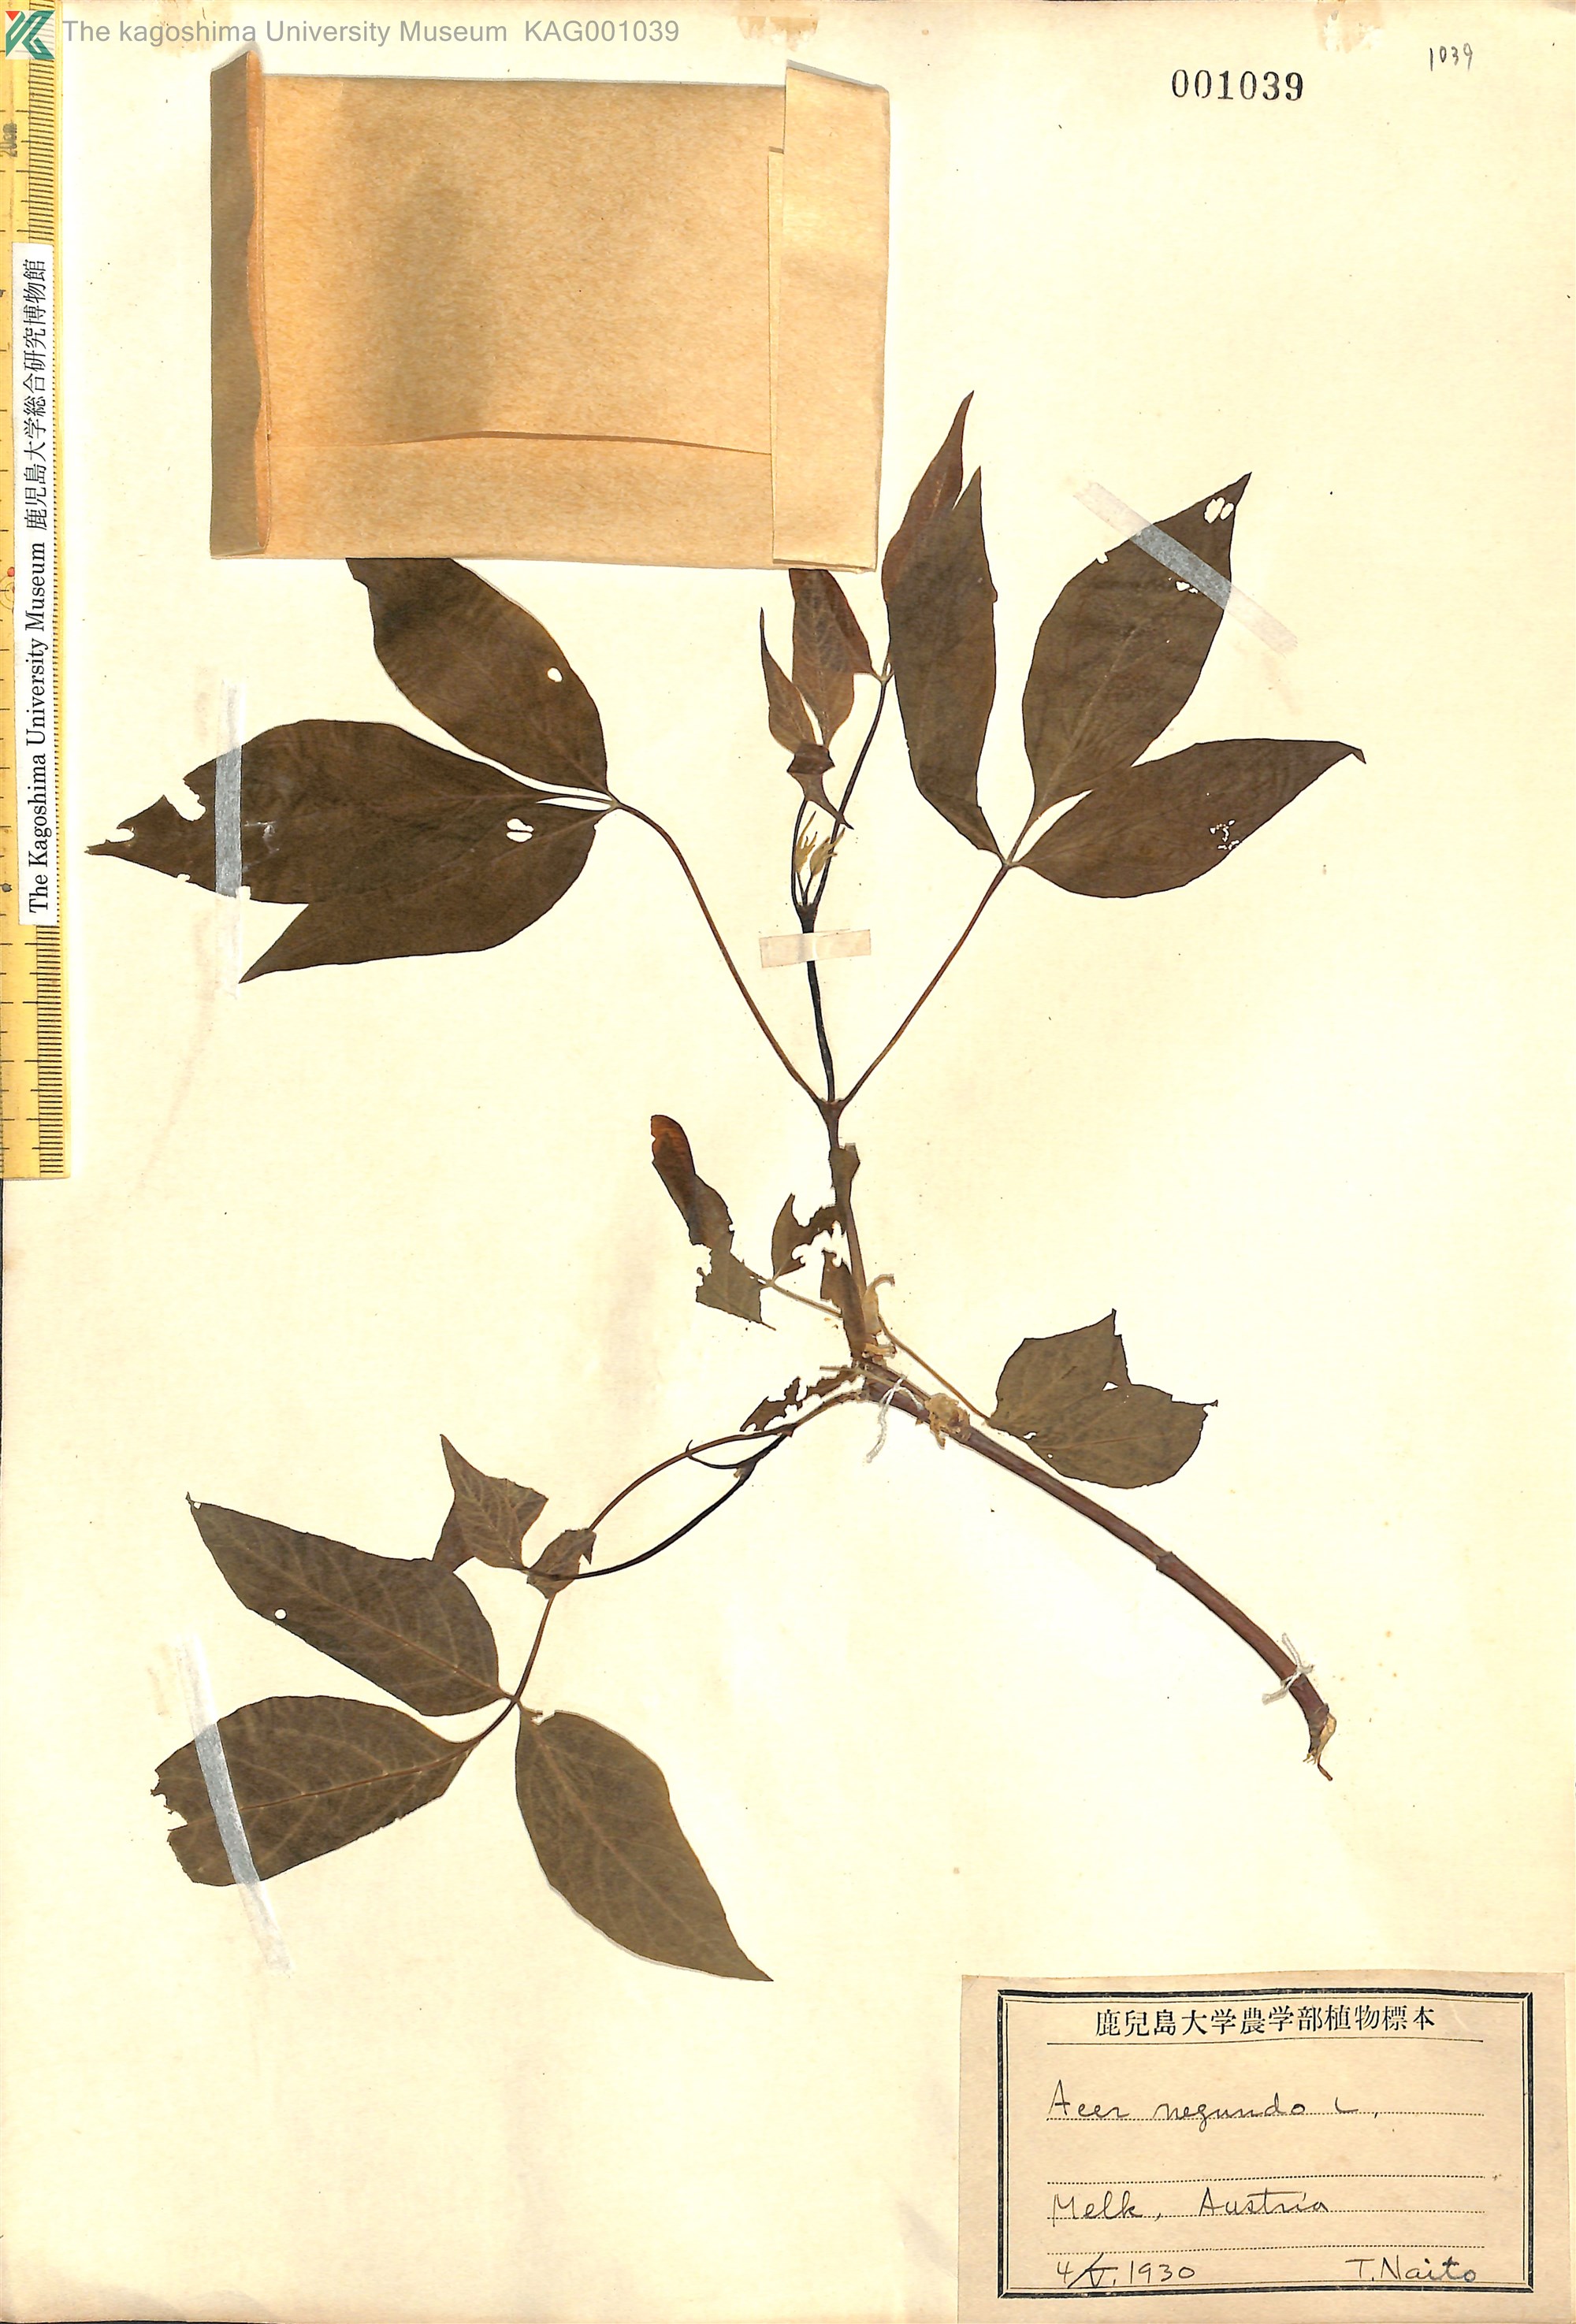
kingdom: Plantae
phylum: Tracheophyta
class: Magnoliopsida
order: Sapindales
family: Sapindaceae
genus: Acer
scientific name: Acer negundo
